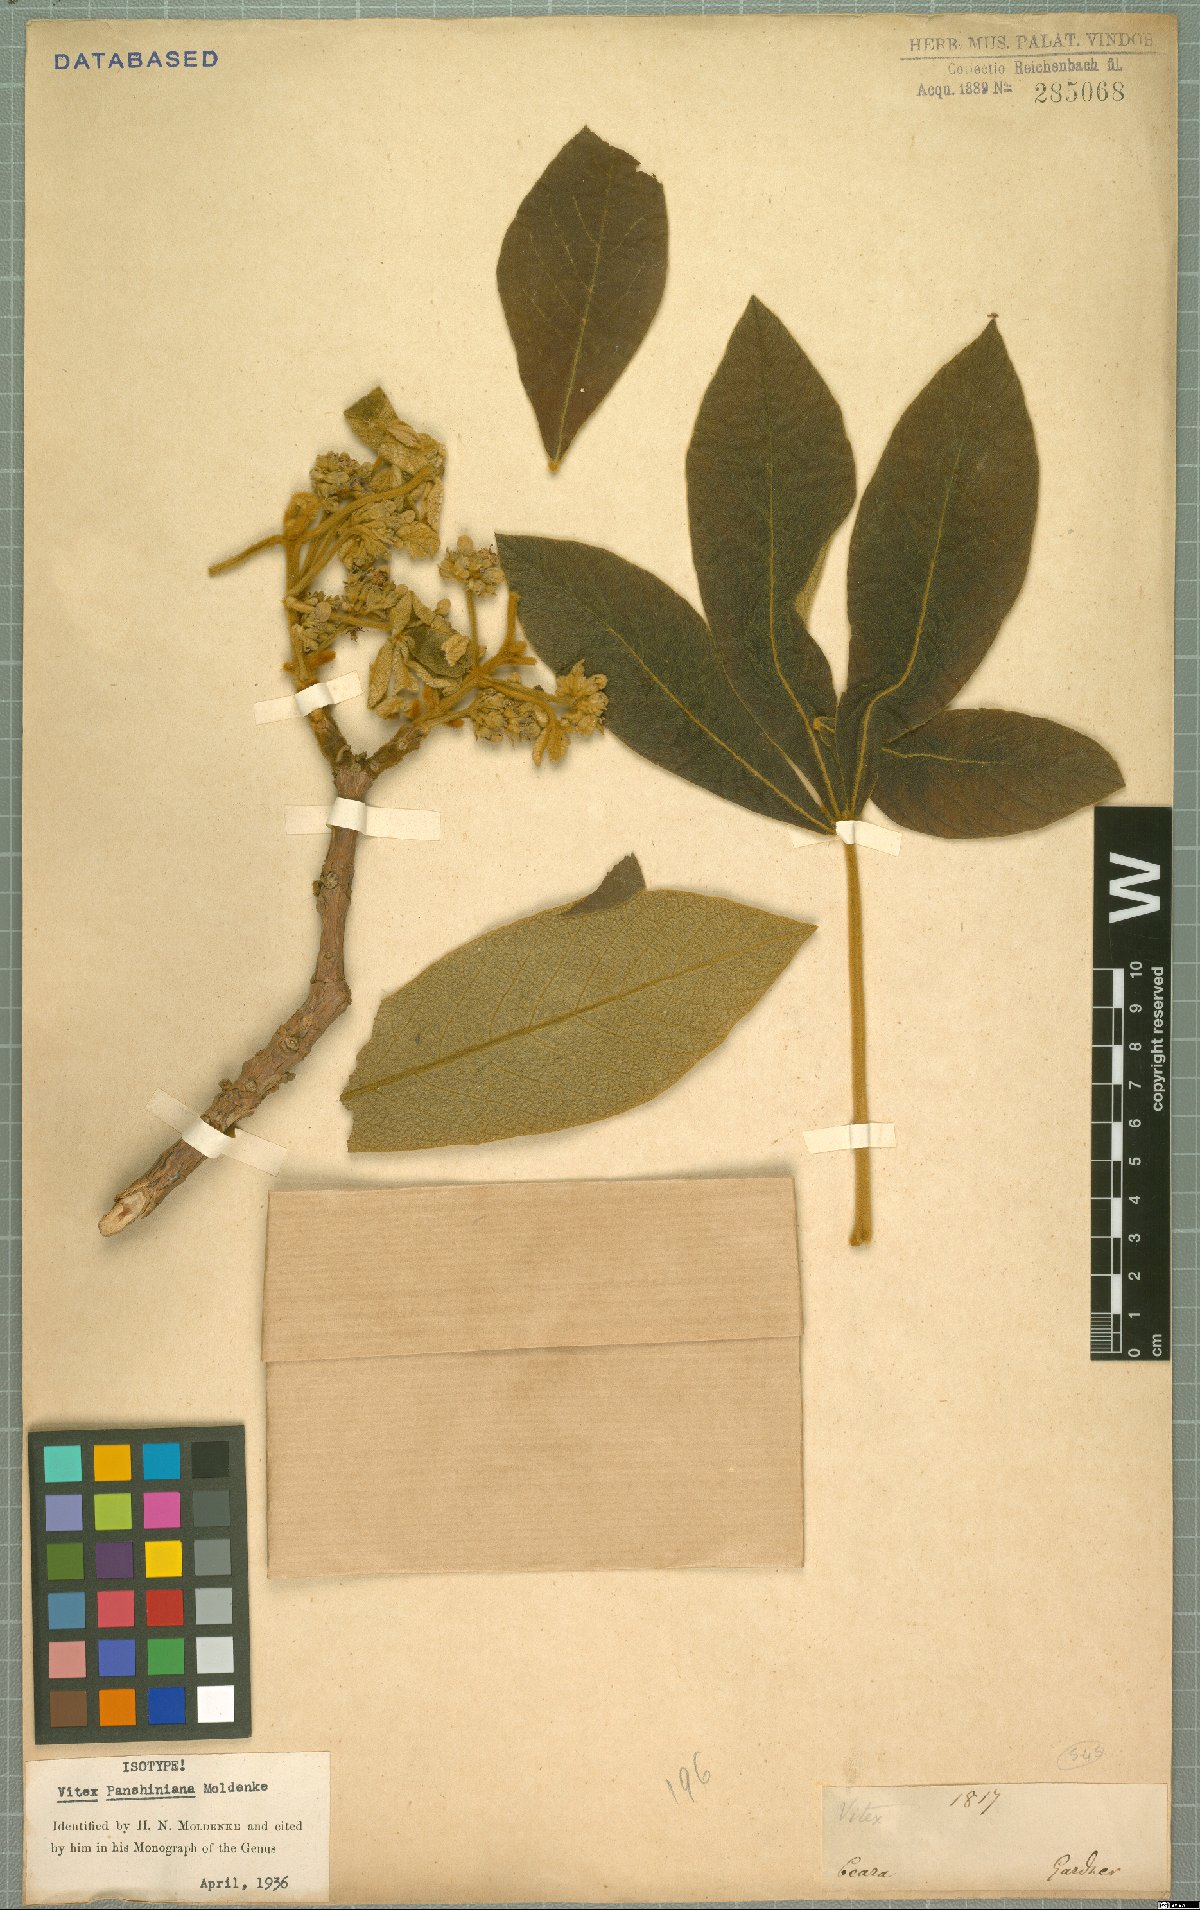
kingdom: Plantae
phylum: Tracheophyta
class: Magnoliopsida
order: Lamiales
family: Lamiaceae
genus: Vitex
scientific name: Vitex panshiniana
